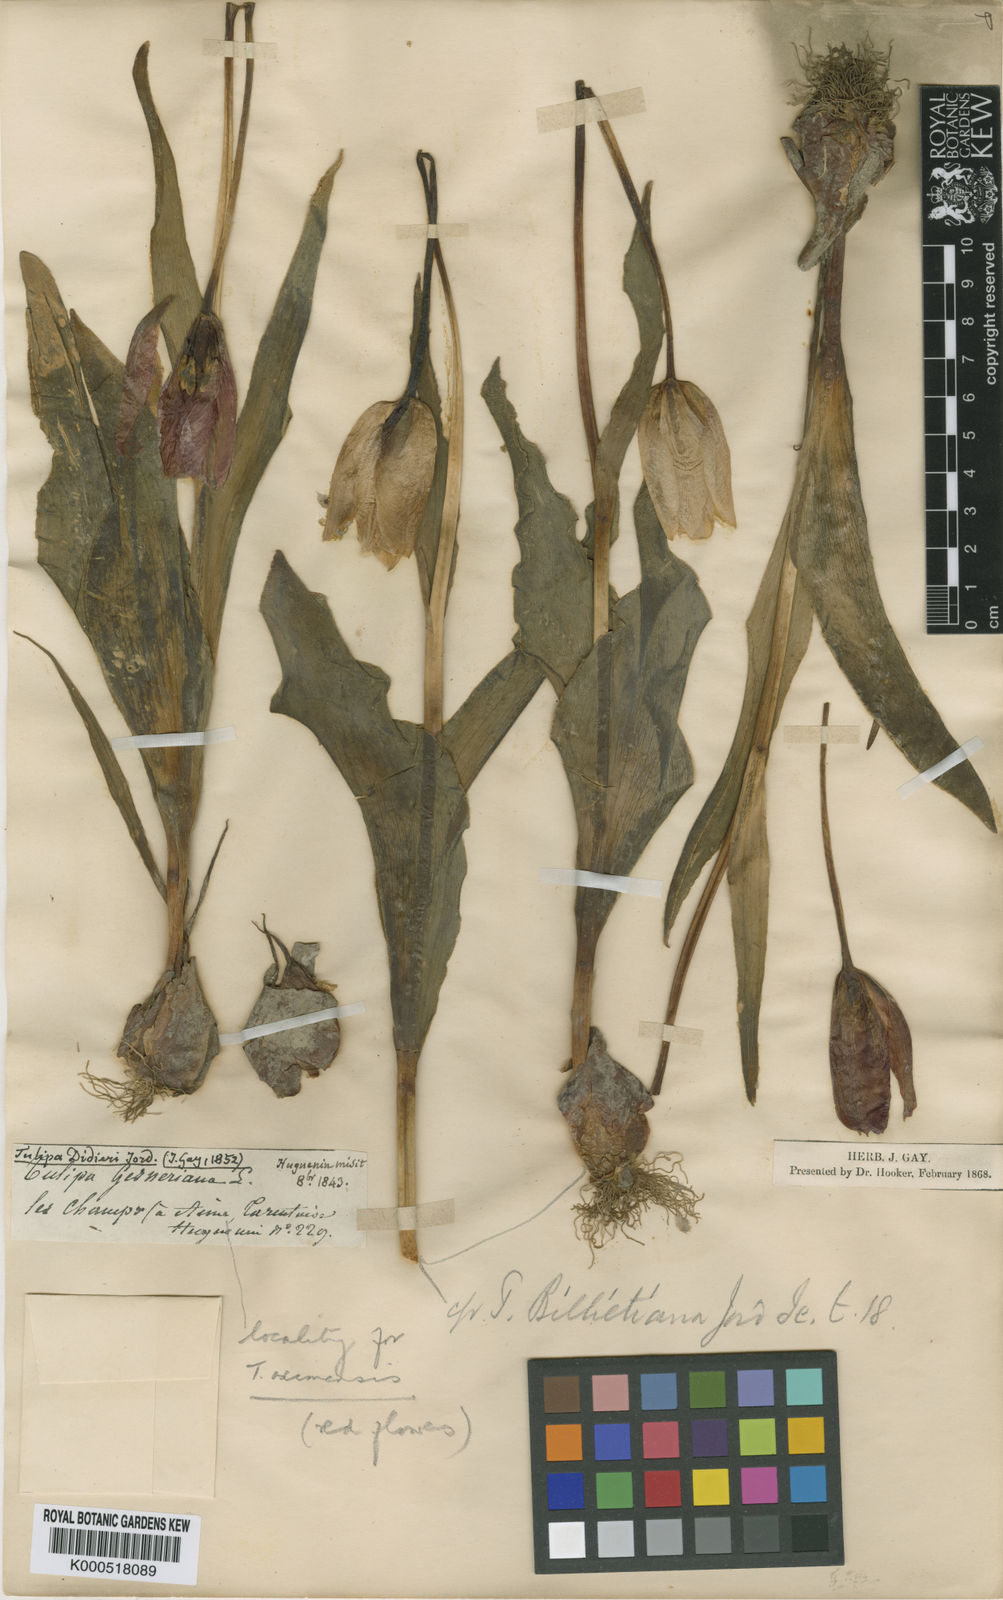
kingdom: Plantae
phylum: Tracheophyta
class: Liliopsida
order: Liliales
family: Liliaceae
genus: Tulipa
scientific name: Tulipa
